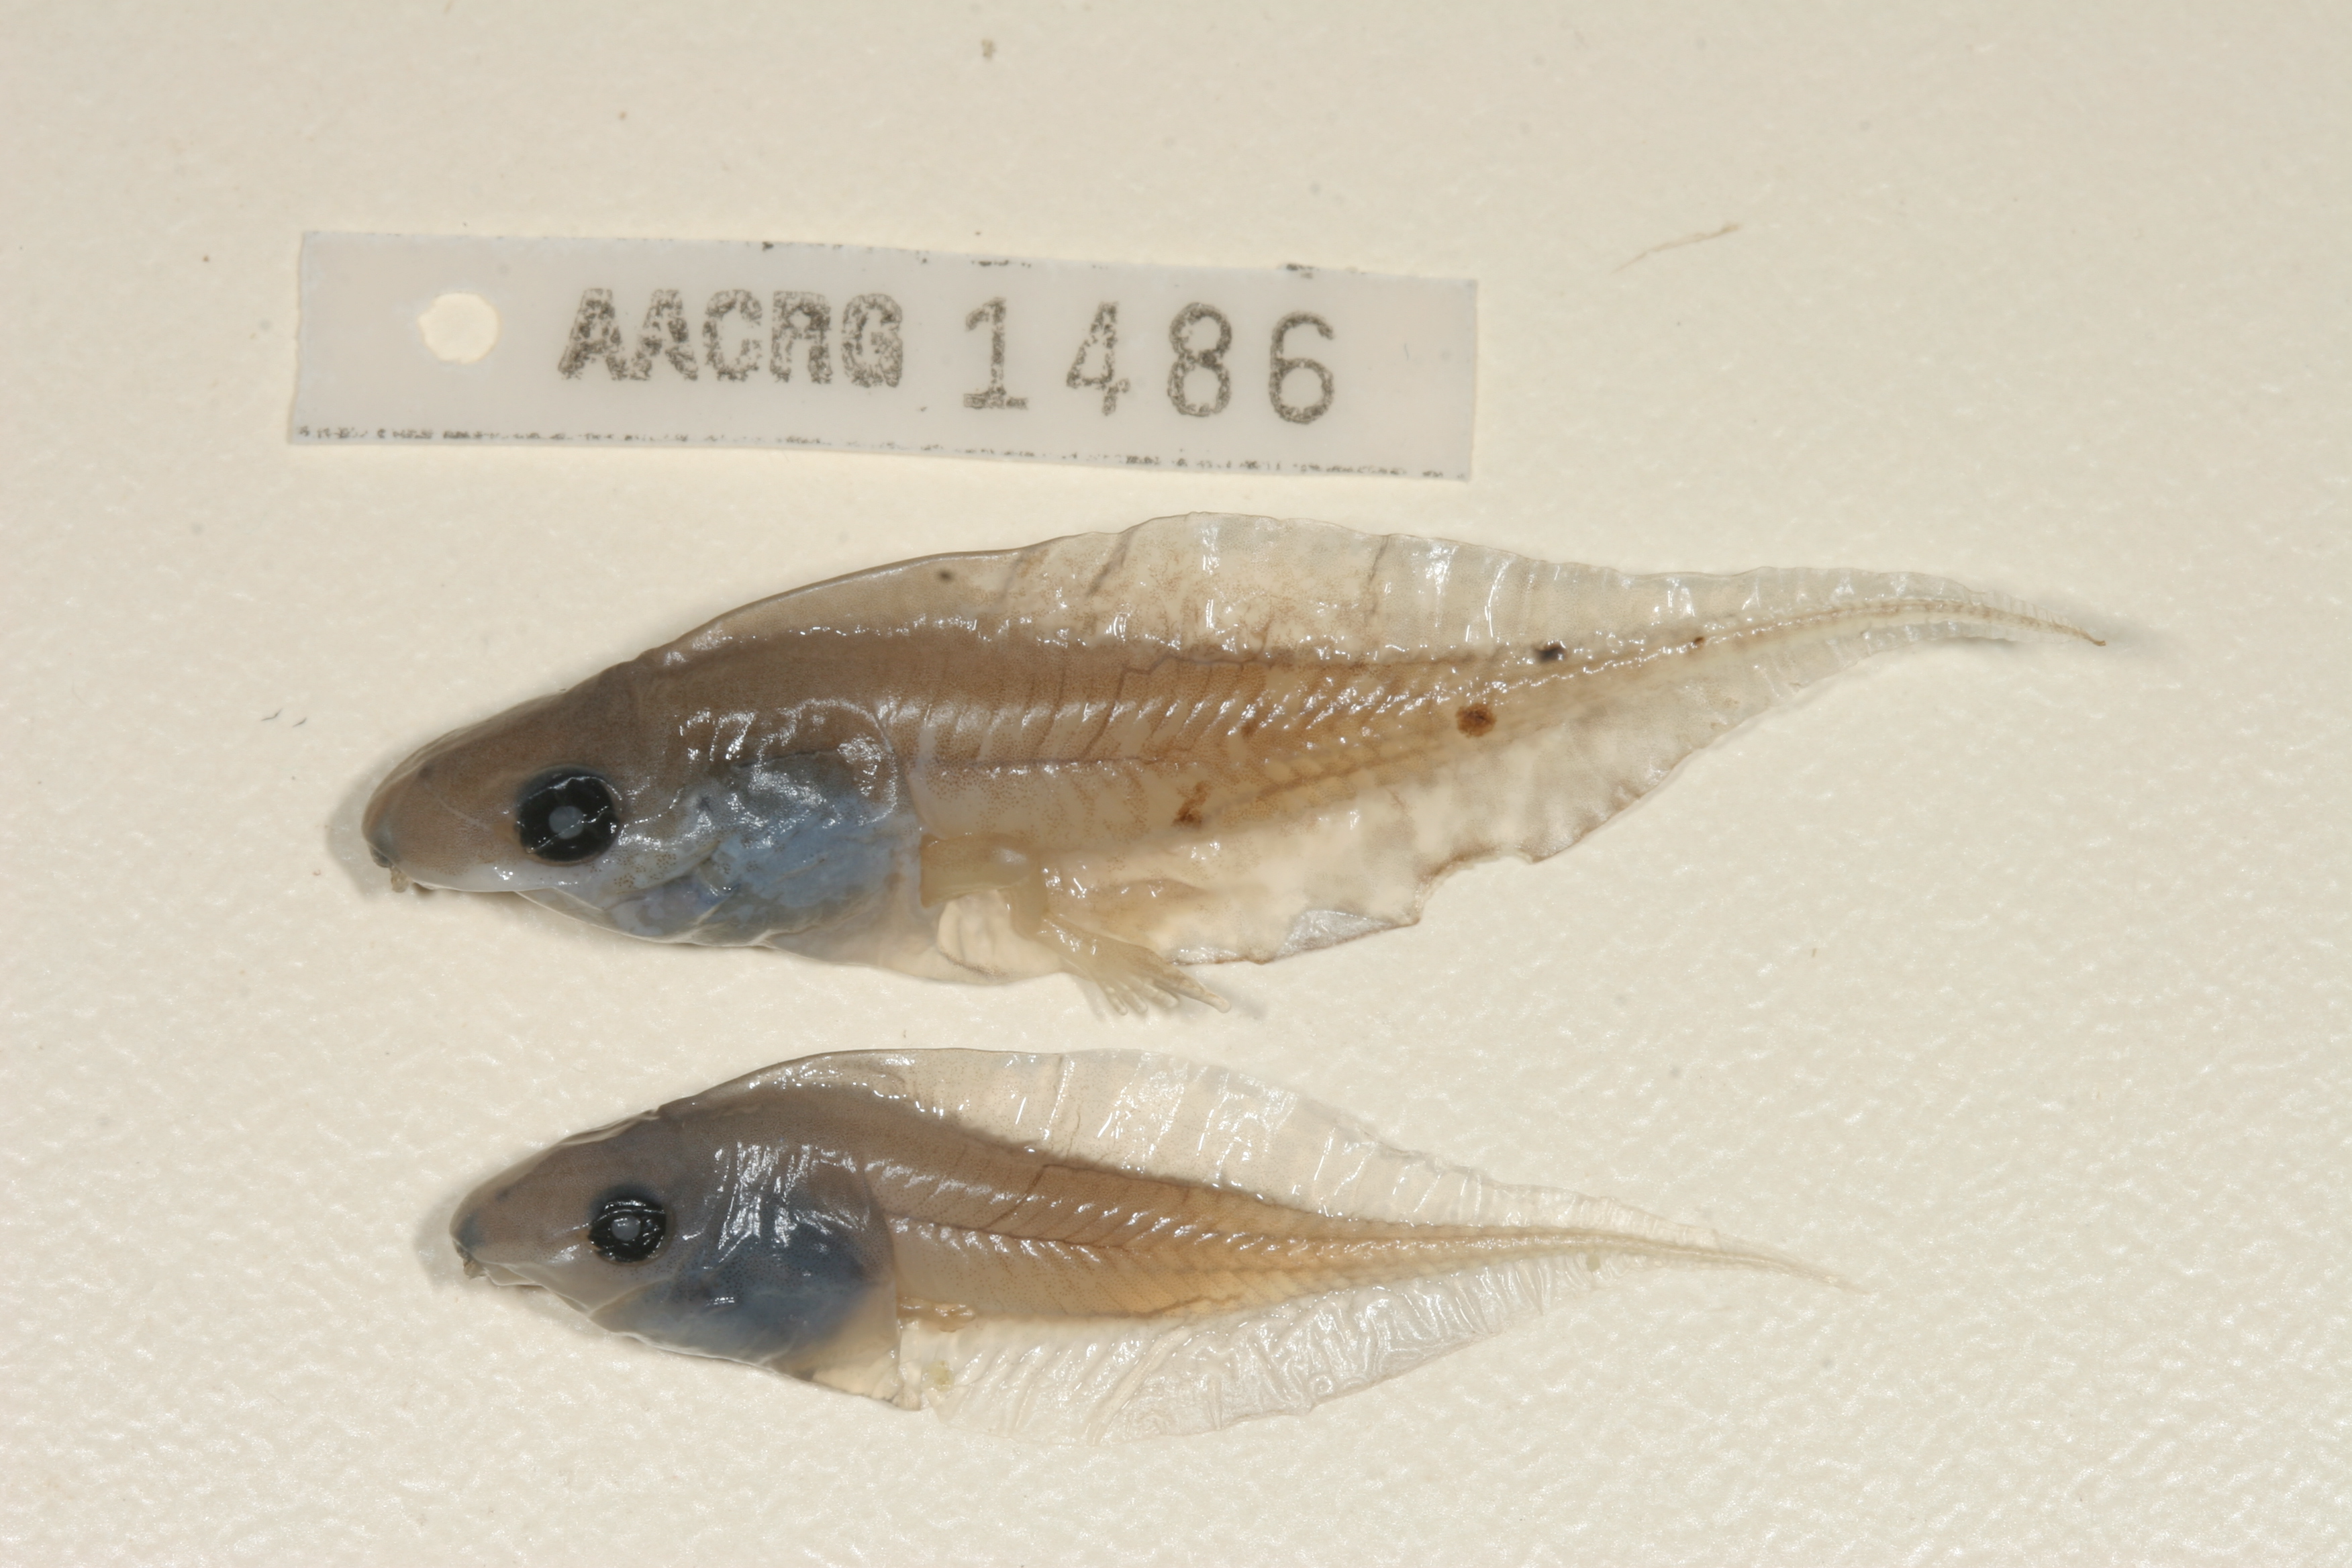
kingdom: Animalia
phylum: Chordata
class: Amphibia
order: Anura
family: Hyperoliidae
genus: Kassina
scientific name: Kassina senegalensis
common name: Senegal land frog
